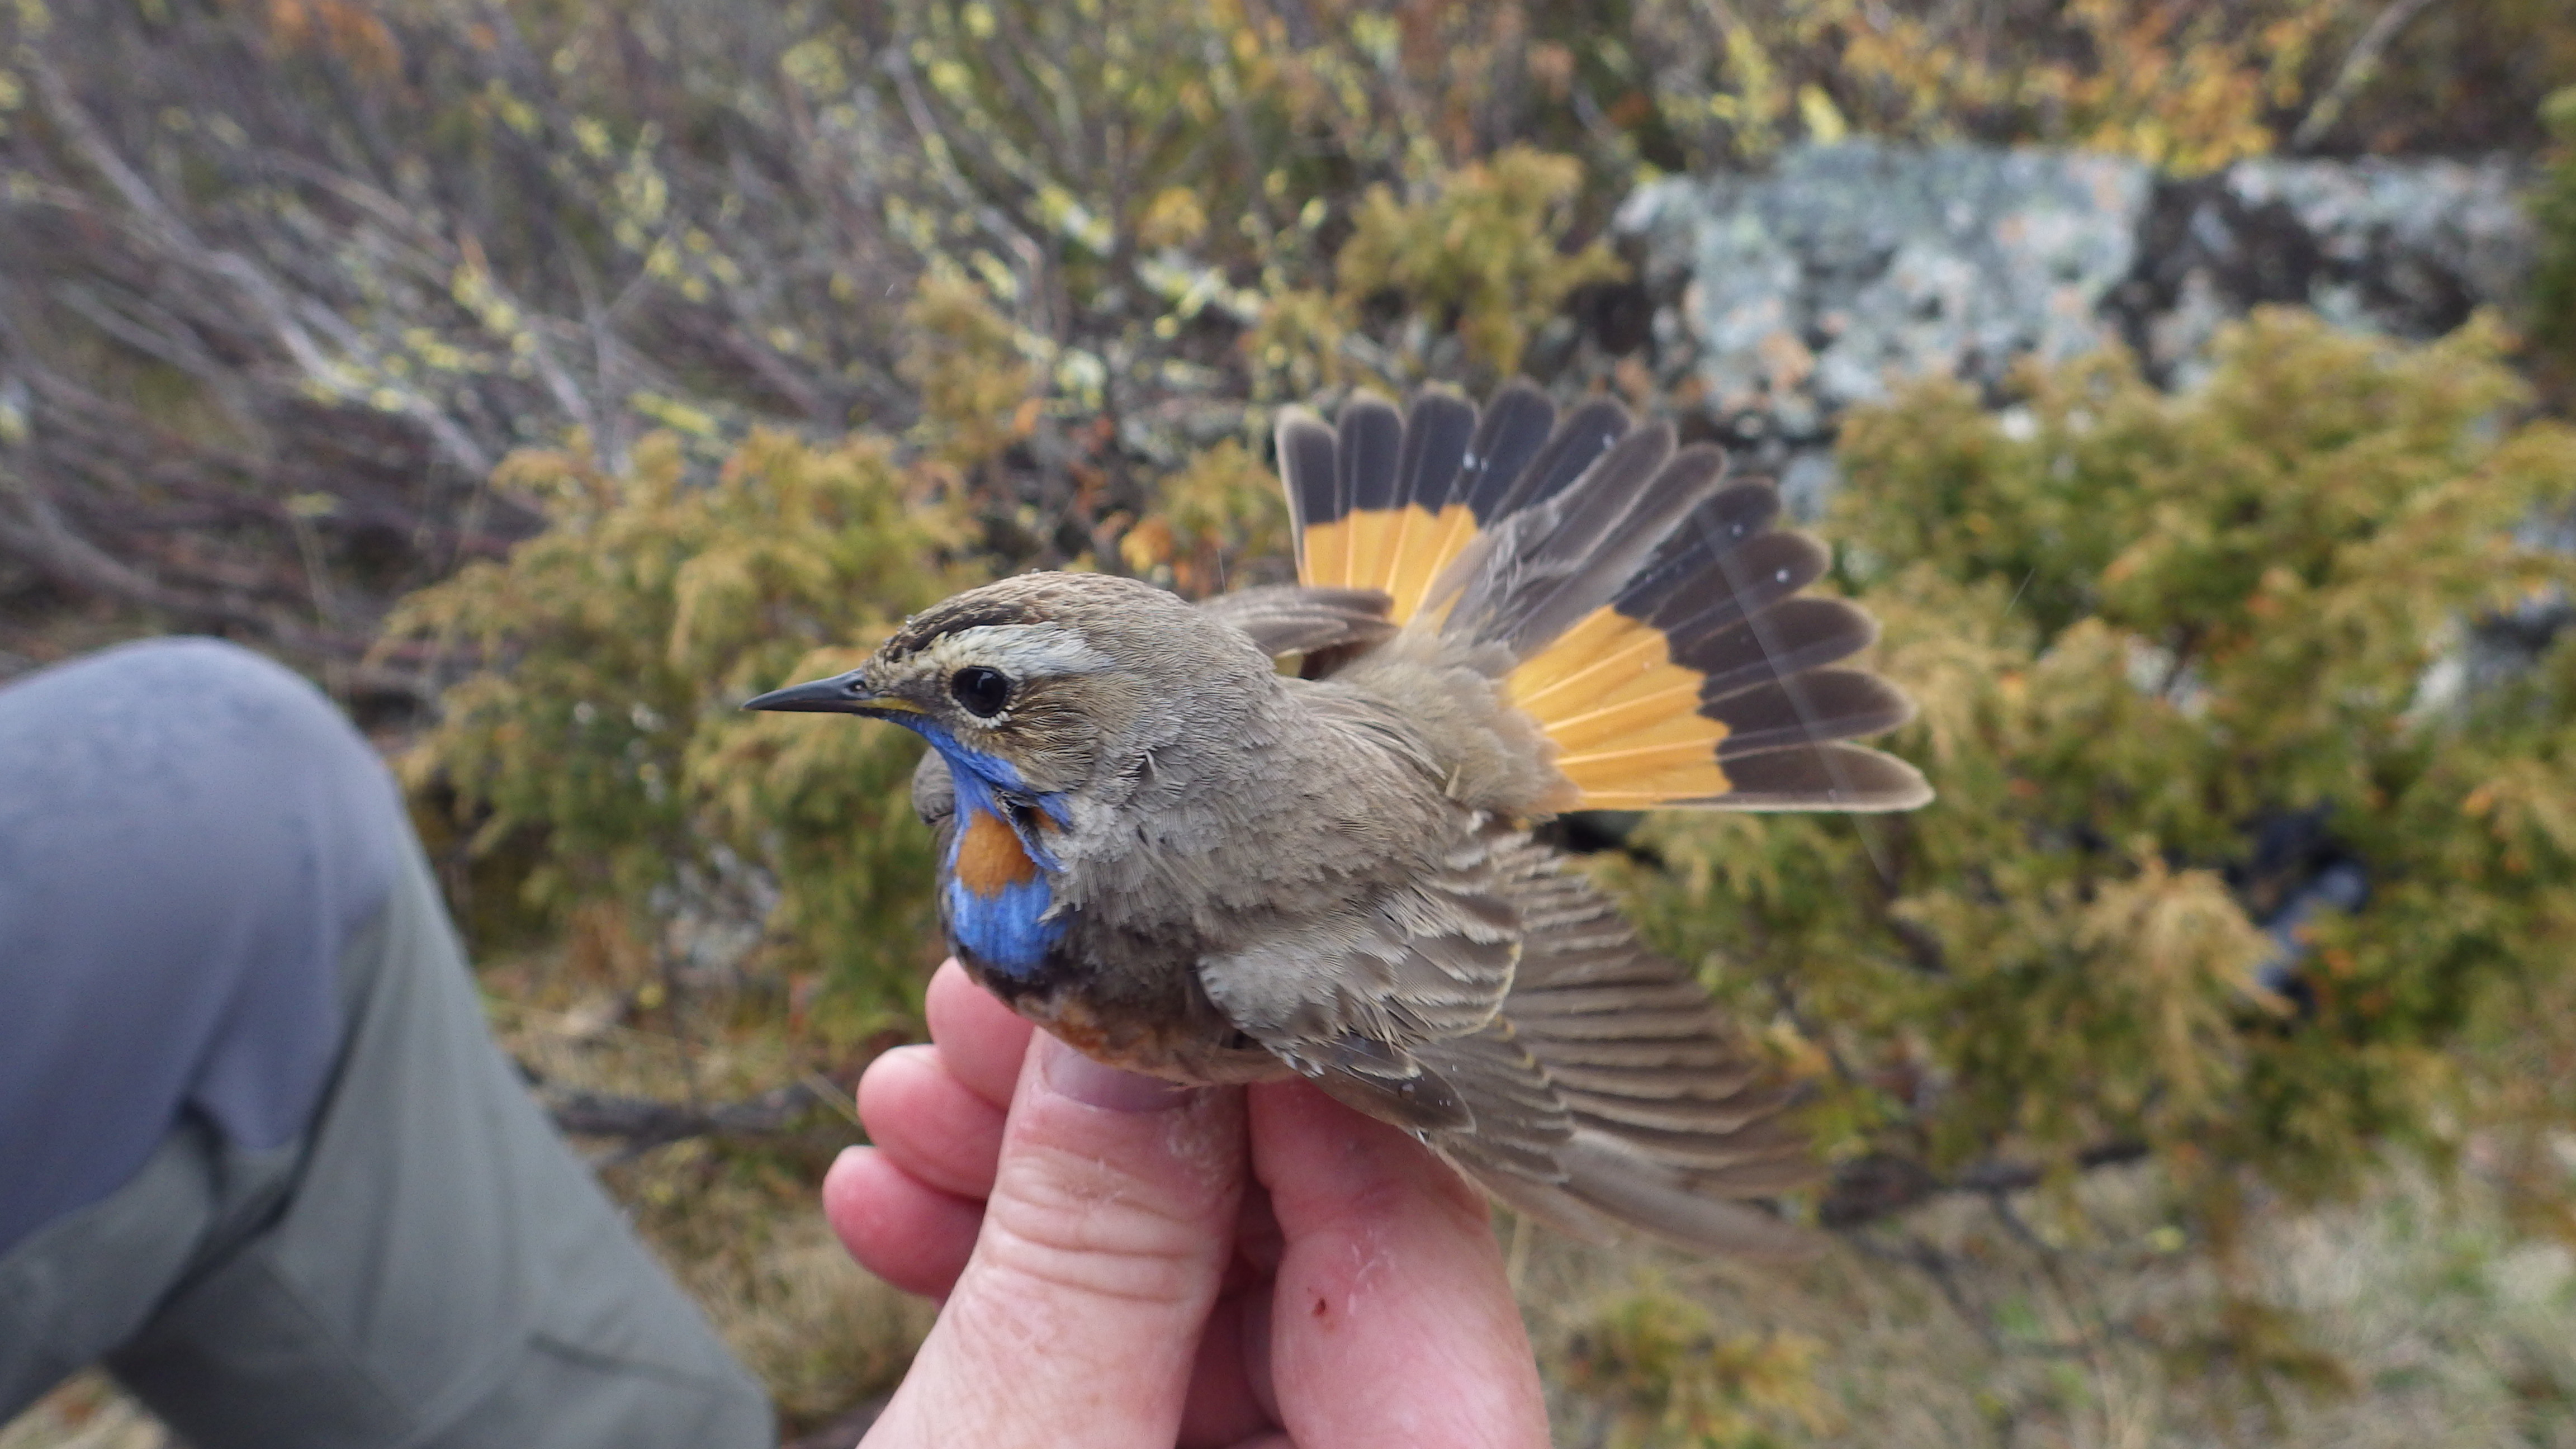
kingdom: Animalia
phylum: Chordata
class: Aves
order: Passeriformes
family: Muscicapidae
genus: Luscinia
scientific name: Luscinia svecica
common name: Bluethroat
